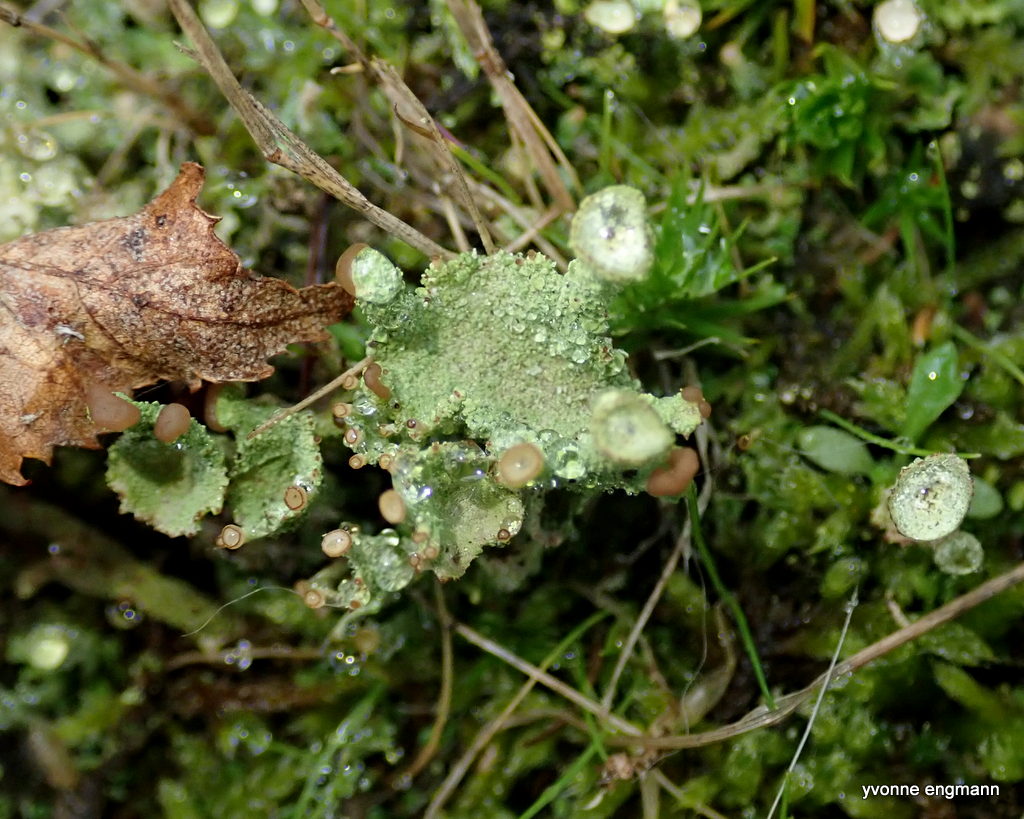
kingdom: Fungi
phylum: Ascomycota
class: Lecanoromycetes
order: Lecanorales
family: Cladoniaceae
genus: Cladonia
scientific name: Cladonia
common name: brungrøn bægerlav
